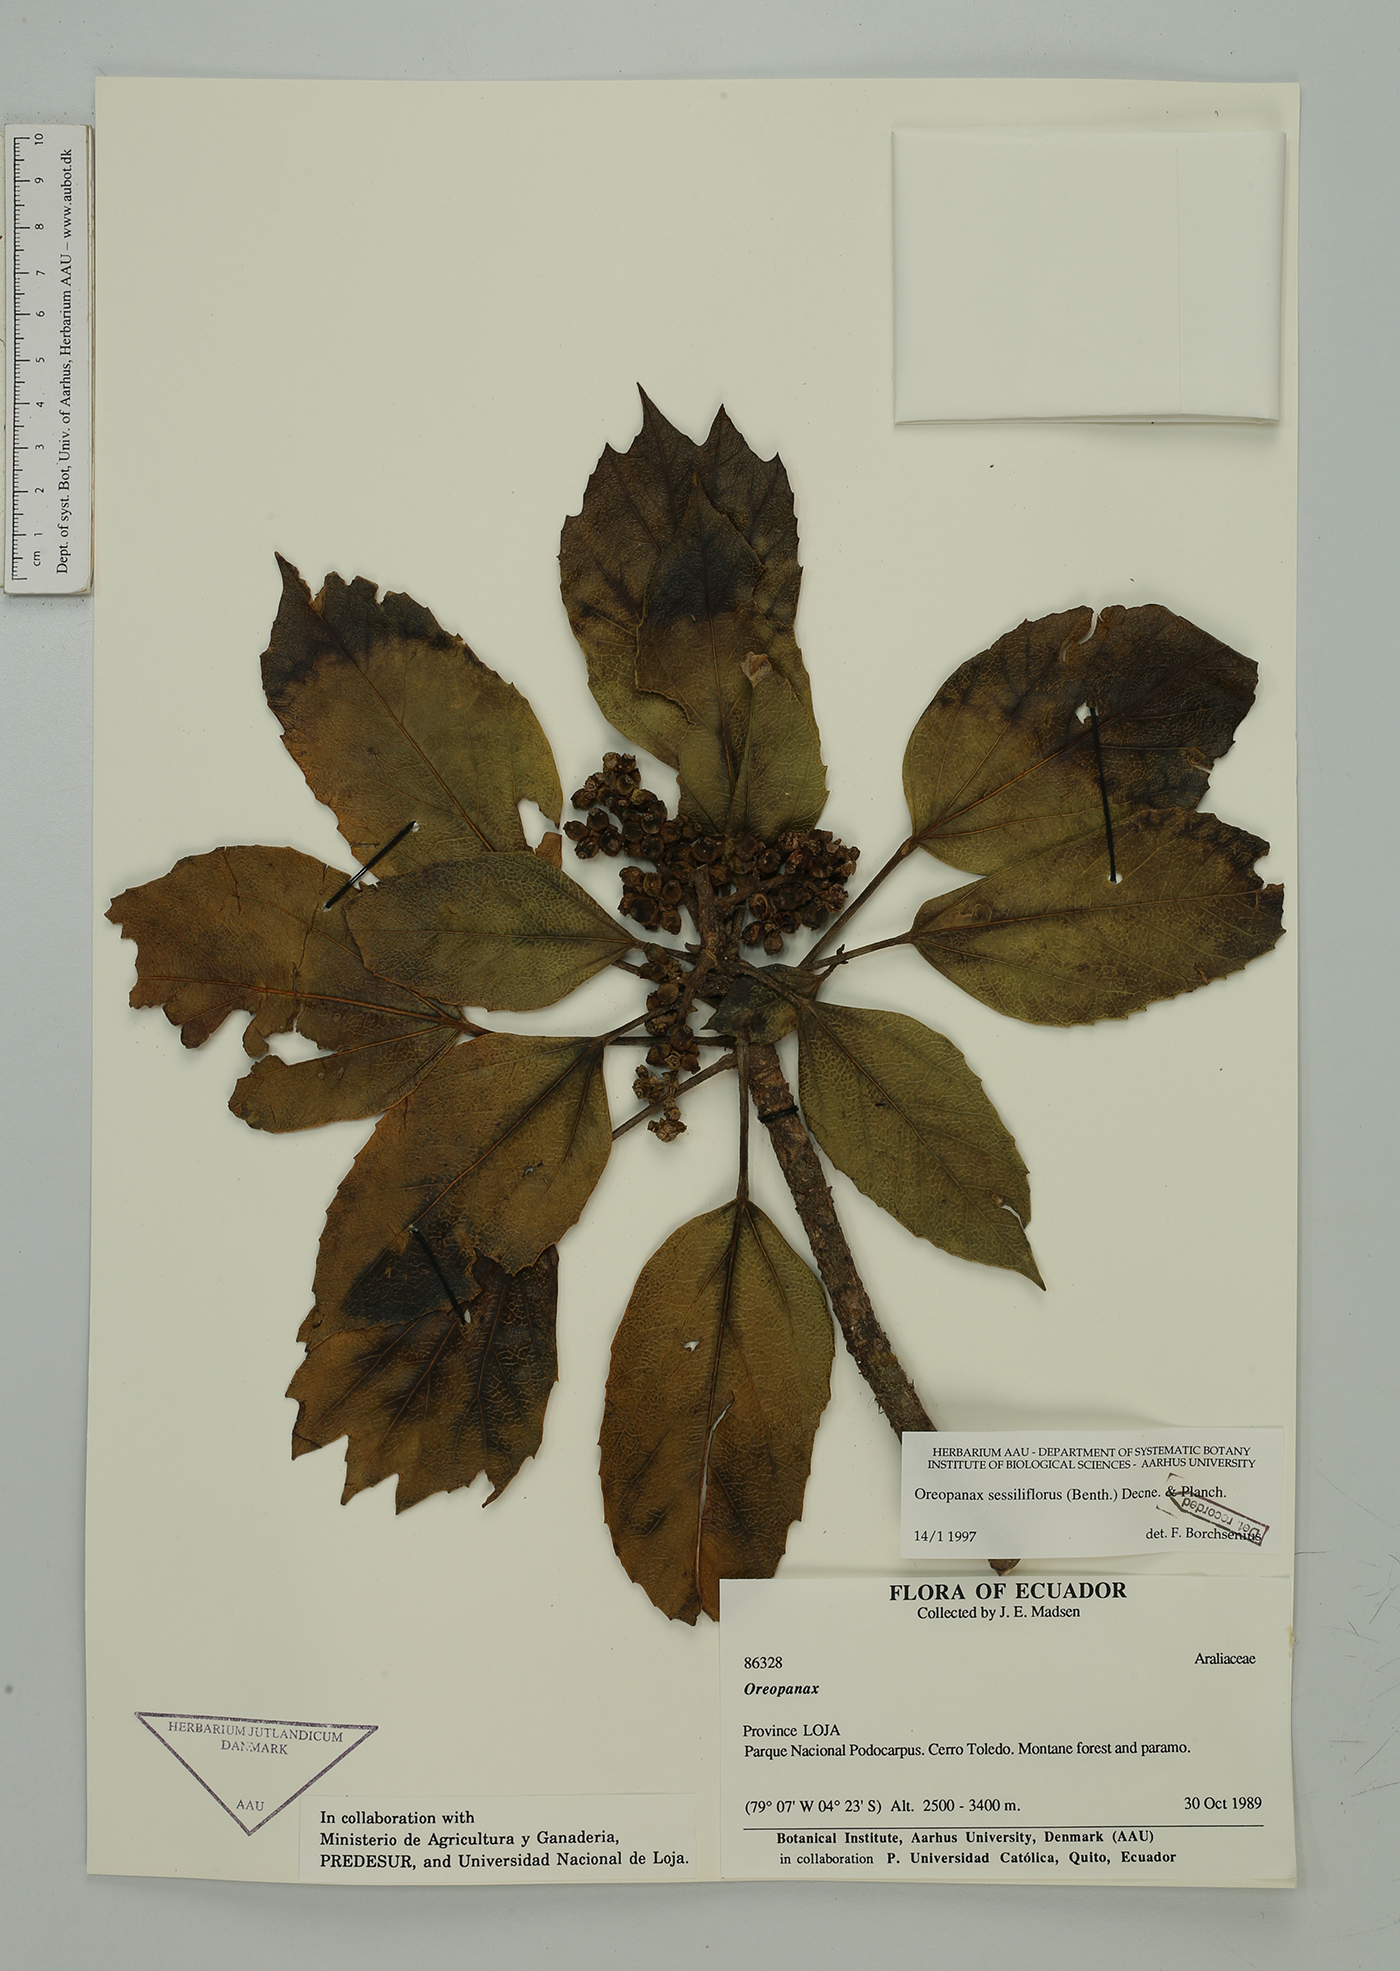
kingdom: Plantae
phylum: Tracheophyta
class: Magnoliopsida
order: Apiales
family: Araliaceae
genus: Oreopanax
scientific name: Oreopanax sessiliflorus
